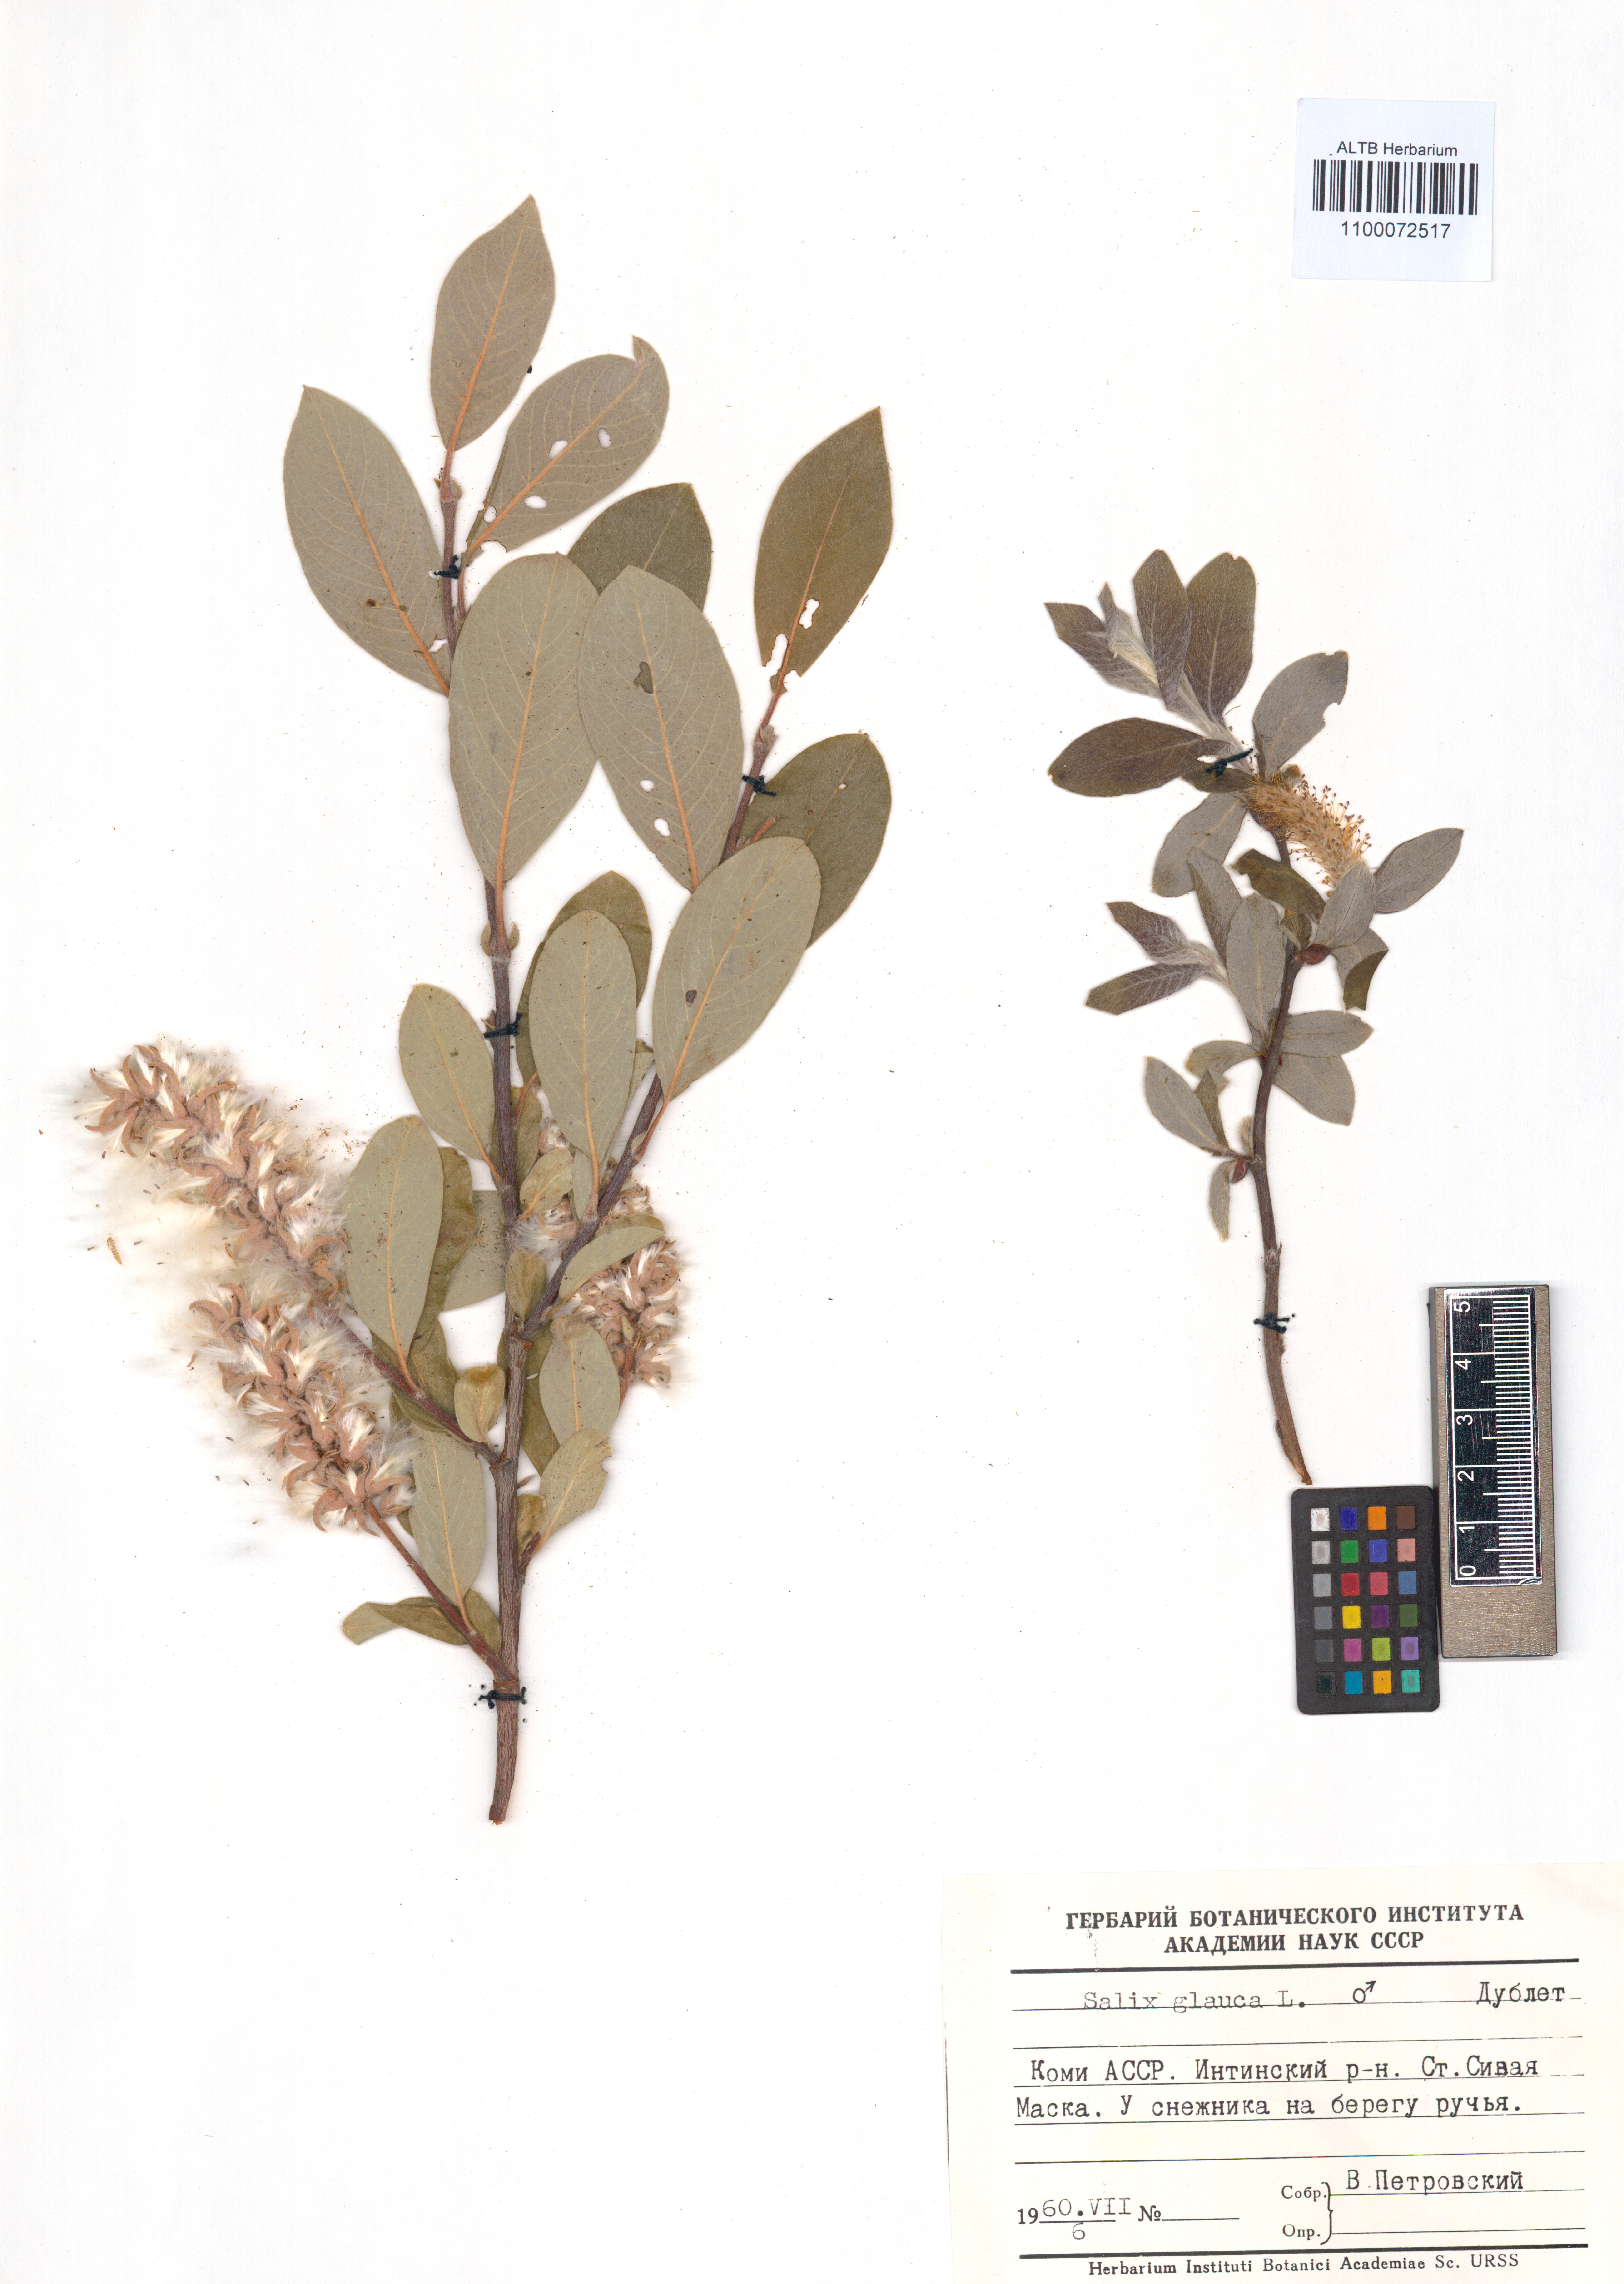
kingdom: Plantae
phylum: Tracheophyta
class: Magnoliopsida
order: Malpighiales
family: Salicaceae
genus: Salix
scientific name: Salix glauca
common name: Glaucous willow
